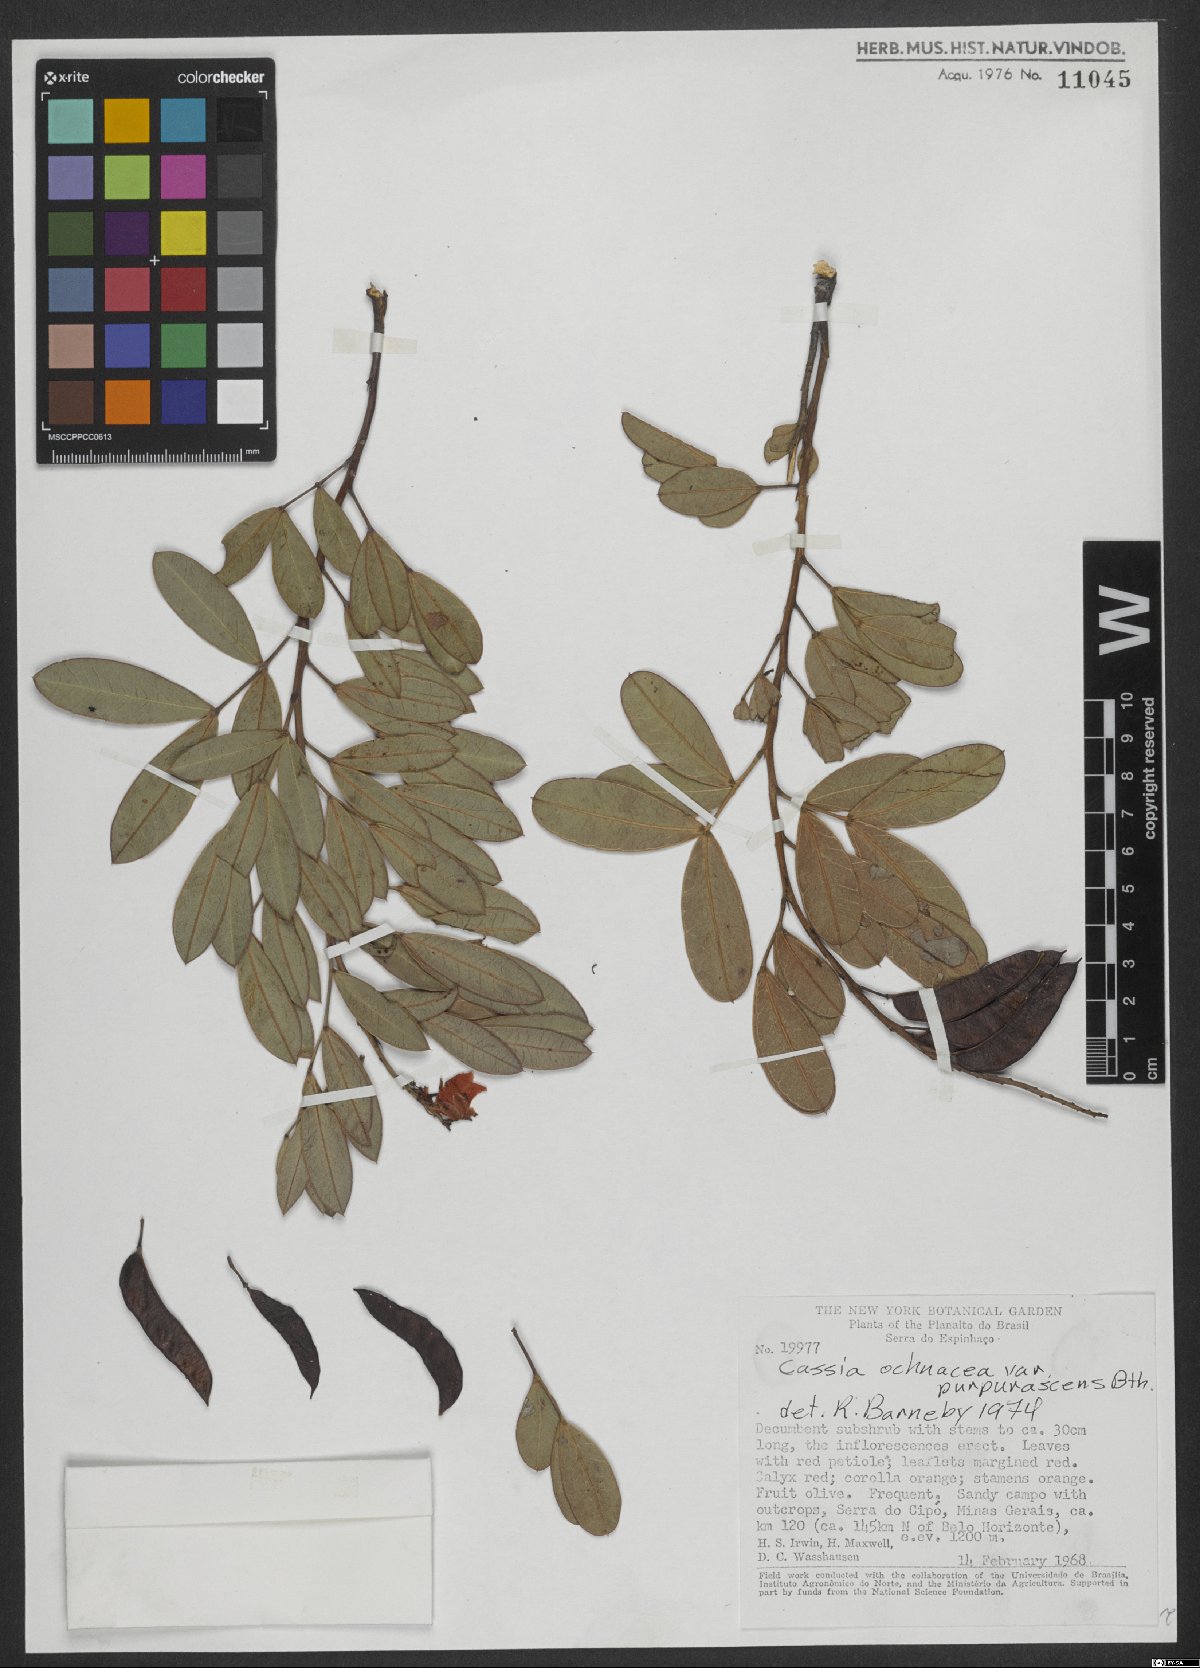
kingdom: Plantae
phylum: Tracheophyta
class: Magnoliopsida
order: Fabales
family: Fabaceae
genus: Chamaecrista
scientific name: Chamaecrista ochnacea
